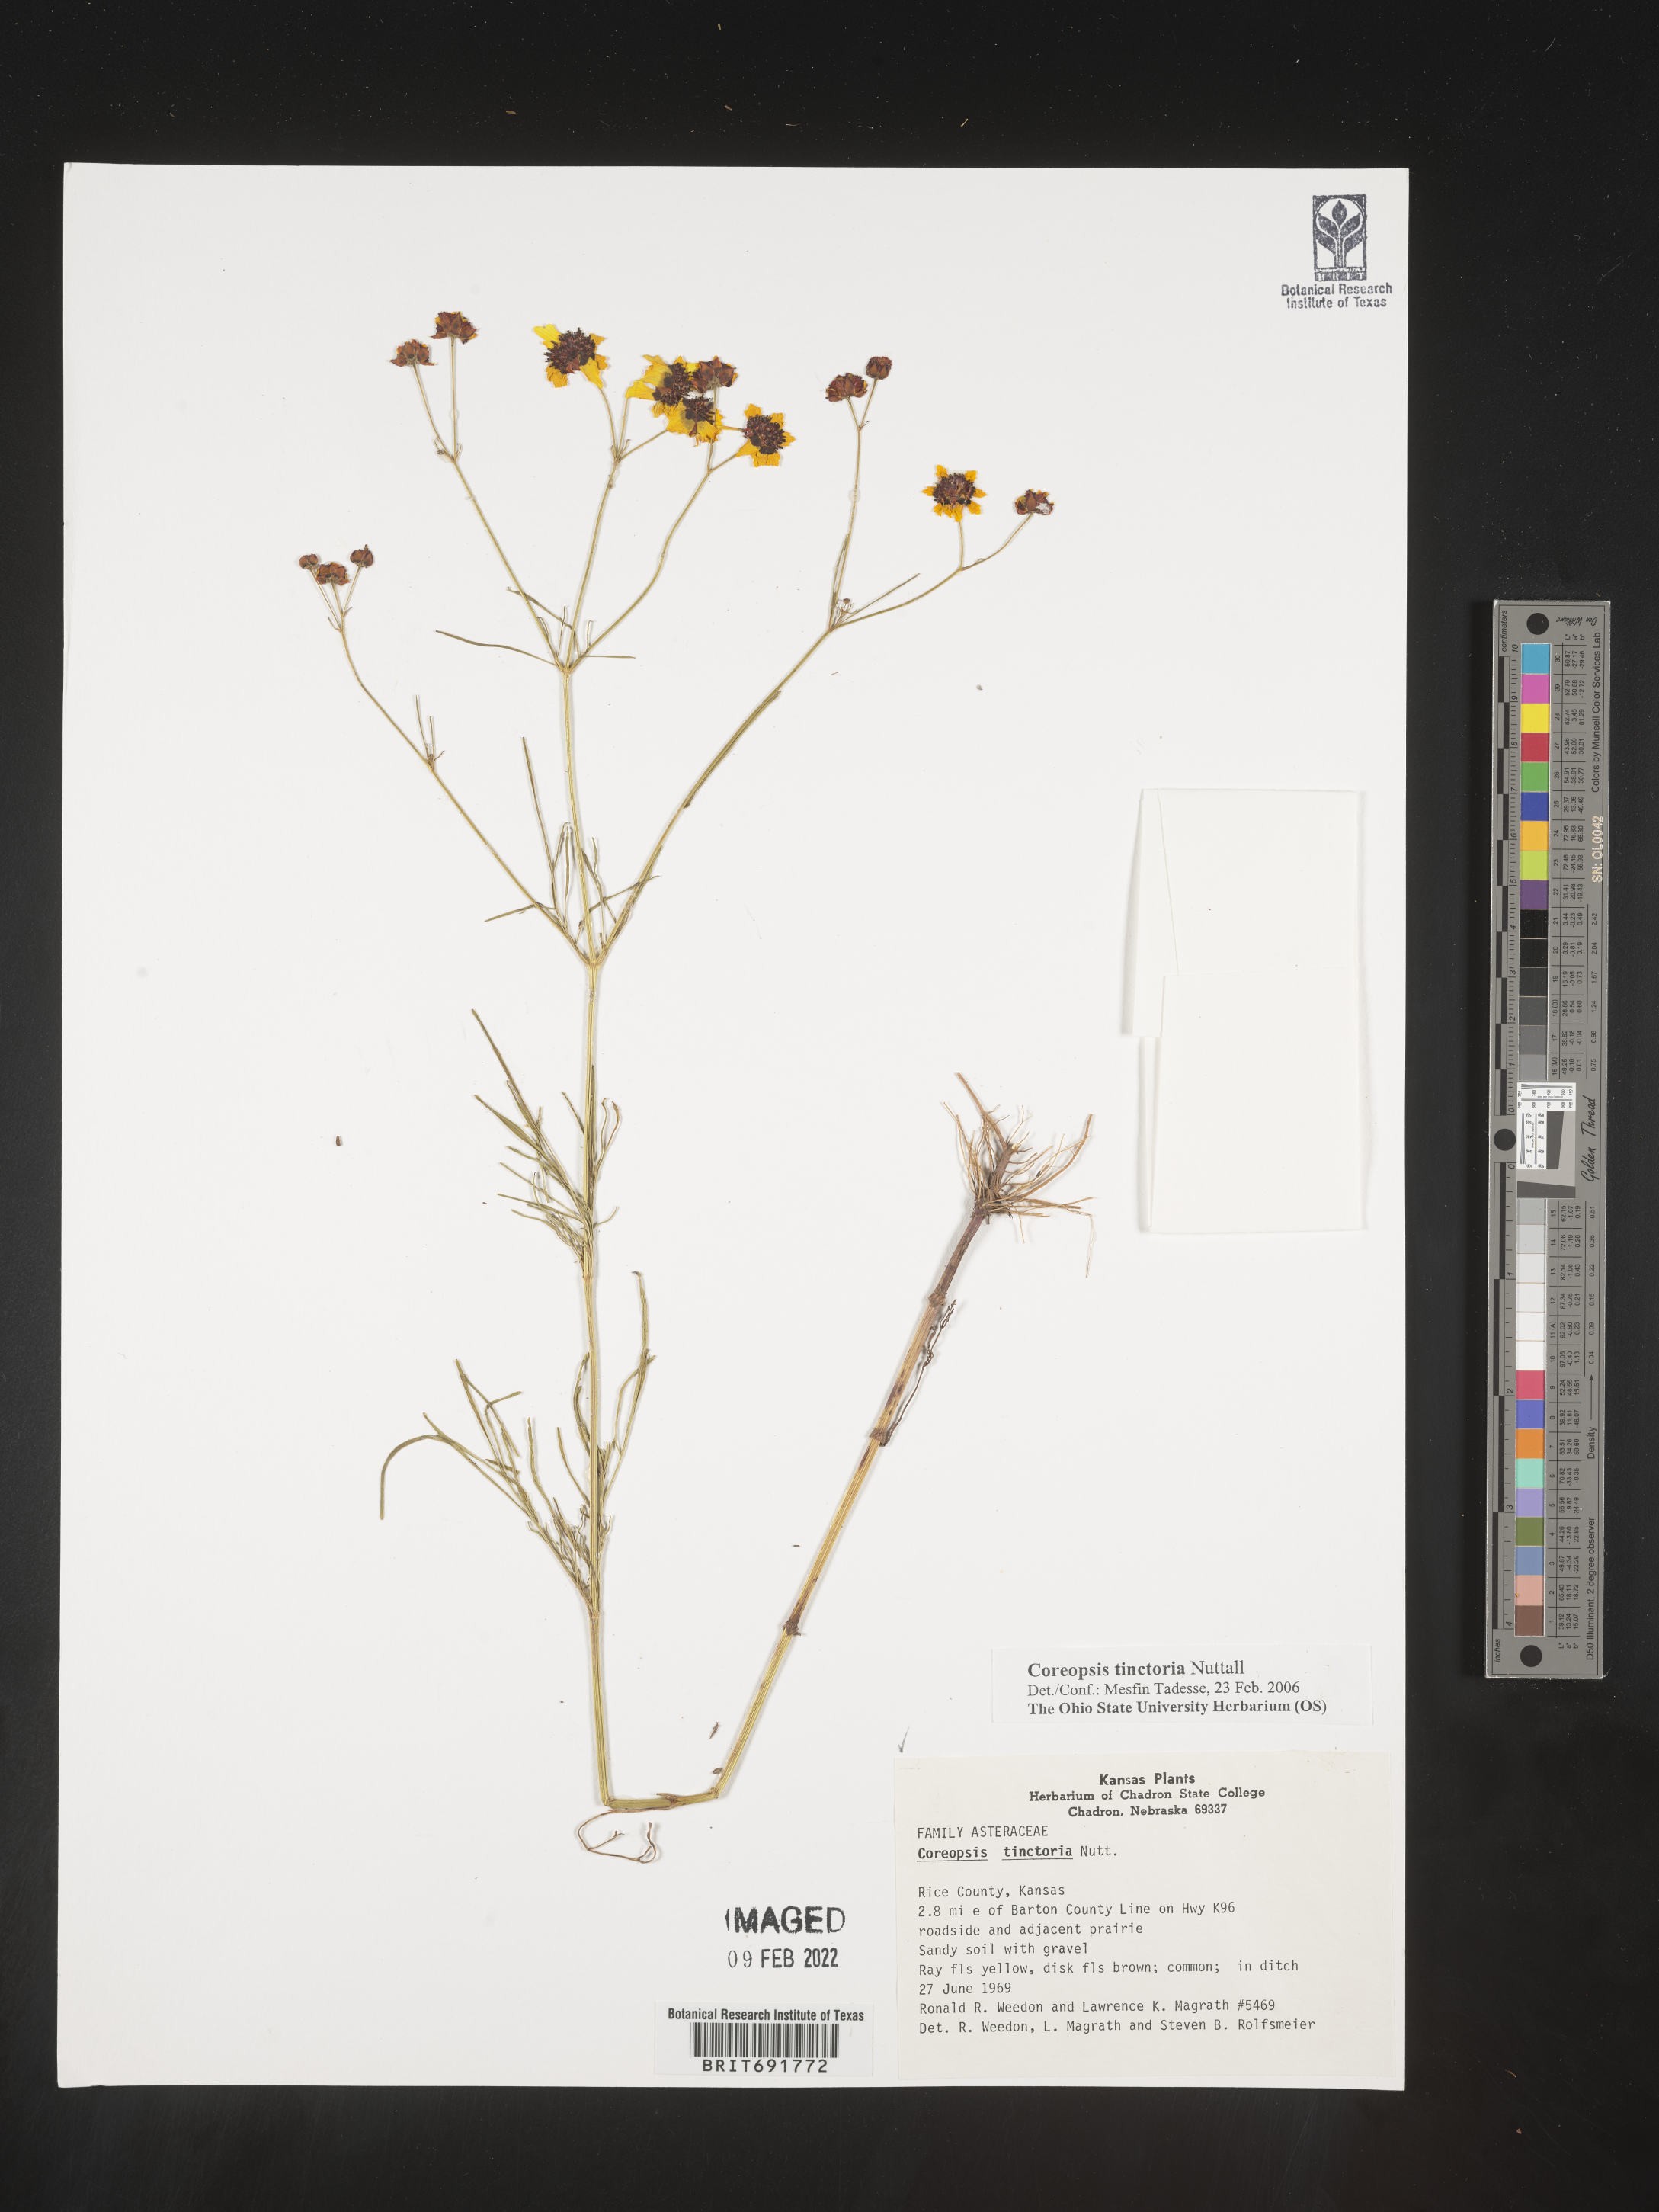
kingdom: Plantae
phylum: Tracheophyta
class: Magnoliopsida
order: Asterales
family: Asteraceae
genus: Coreopsis
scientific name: Coreopsis tinctoria
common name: Garden tickseed
